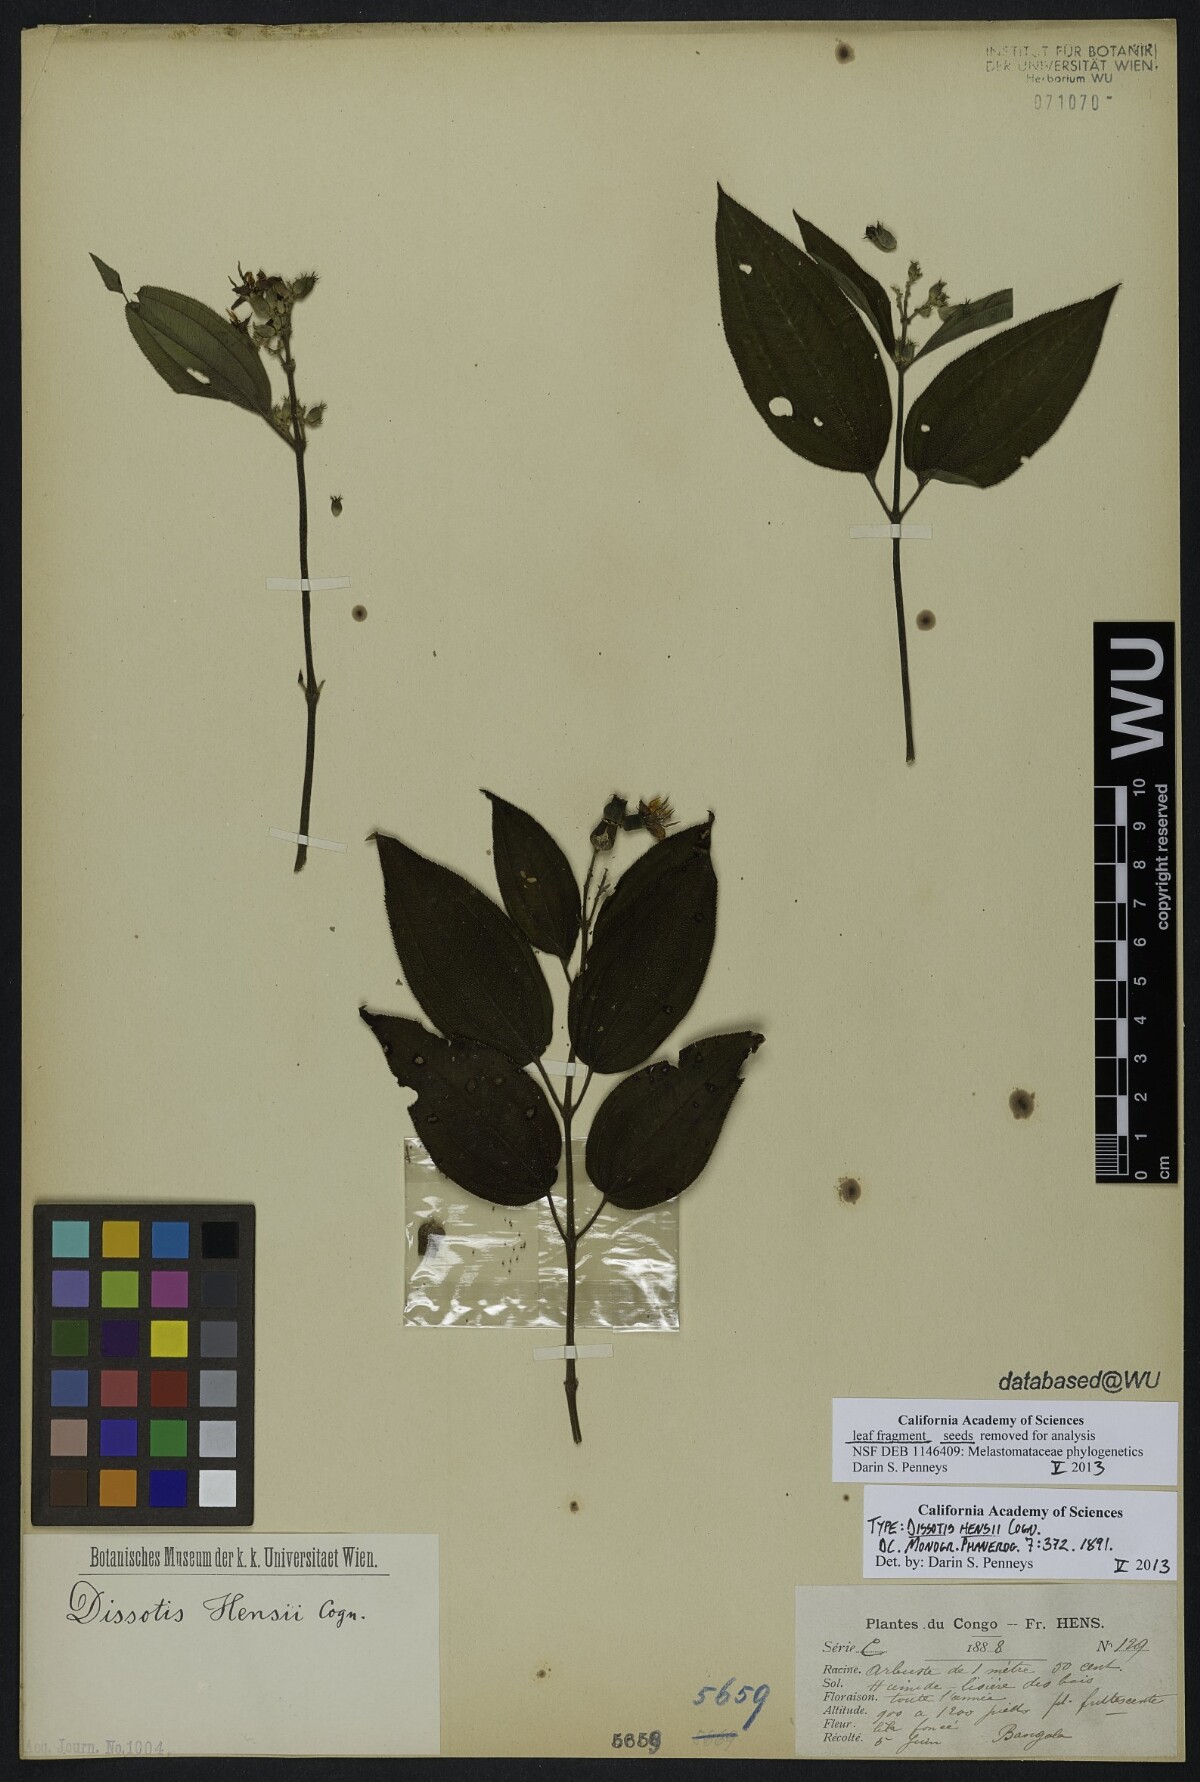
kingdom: Plantae
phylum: Tracheophyta
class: Magnoliopsida
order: Myrtales
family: Melastomataceae
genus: Dupineta
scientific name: Dupineta hensii
